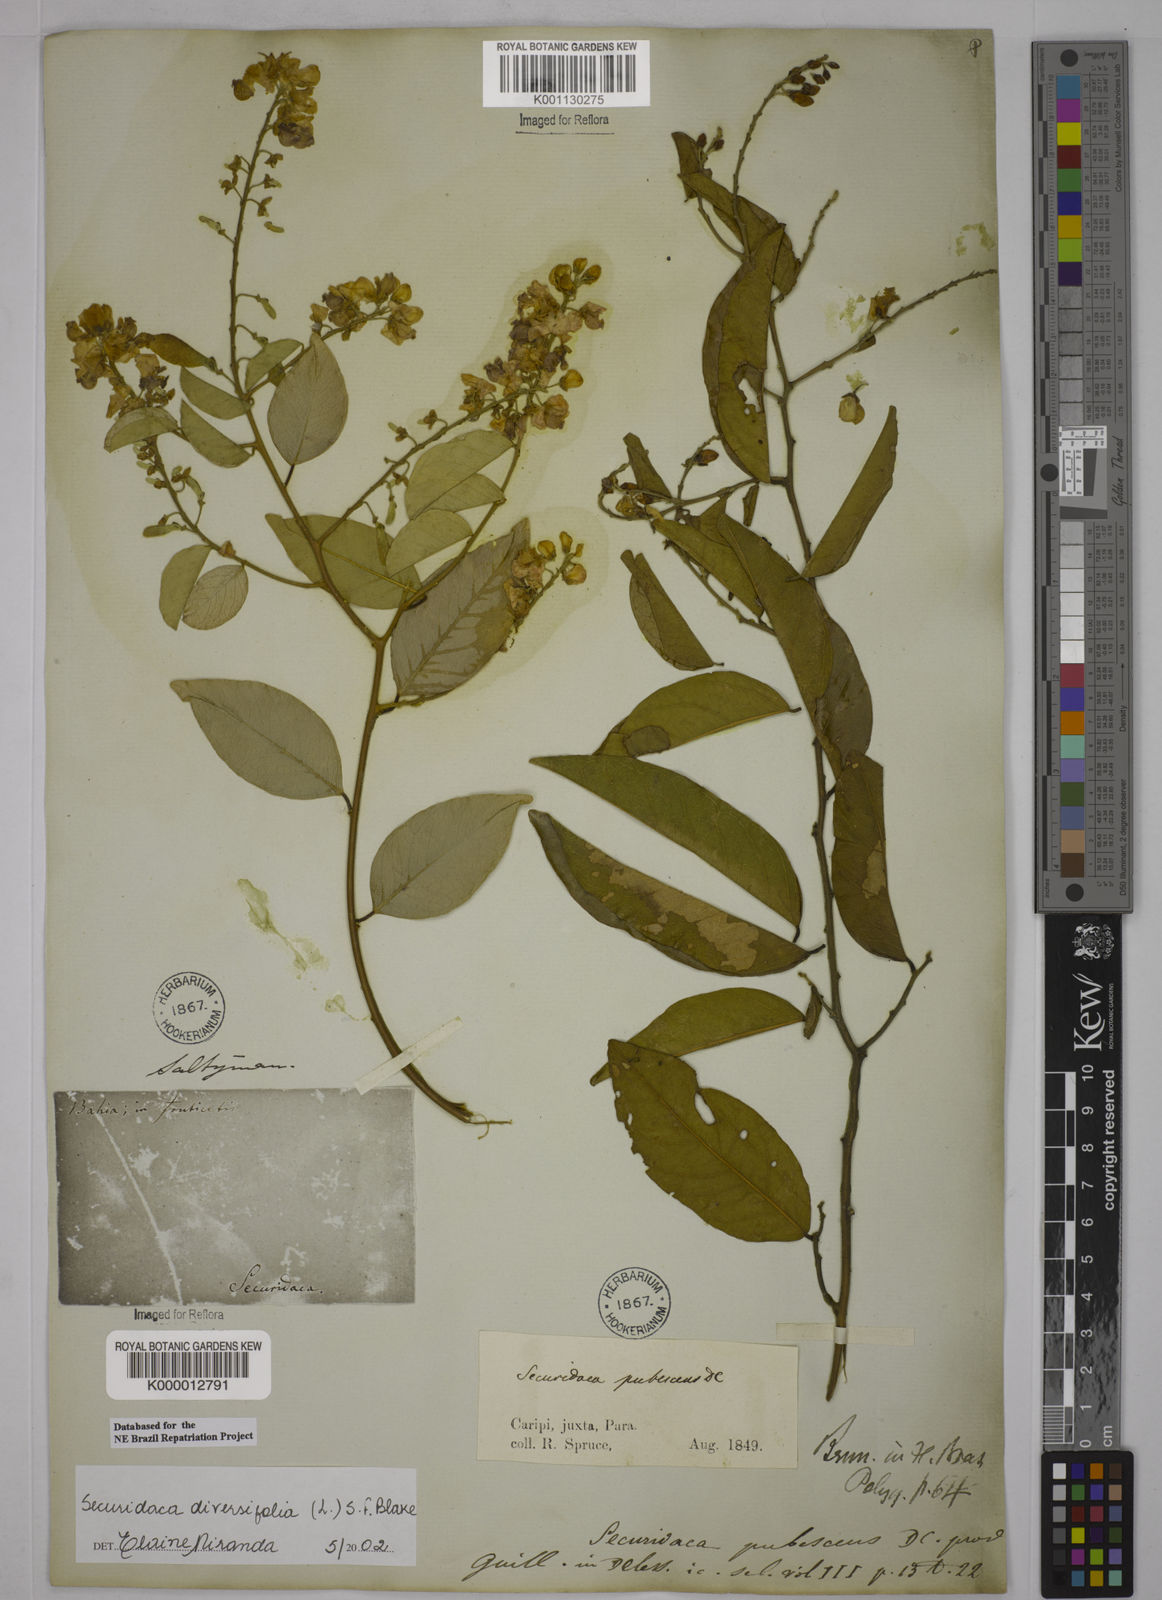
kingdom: Plantae
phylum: Tracheophyta
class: Magnoliopsida
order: Fabales
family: Polygalaceae
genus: Securidaca
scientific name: Securidaca diversifolia
